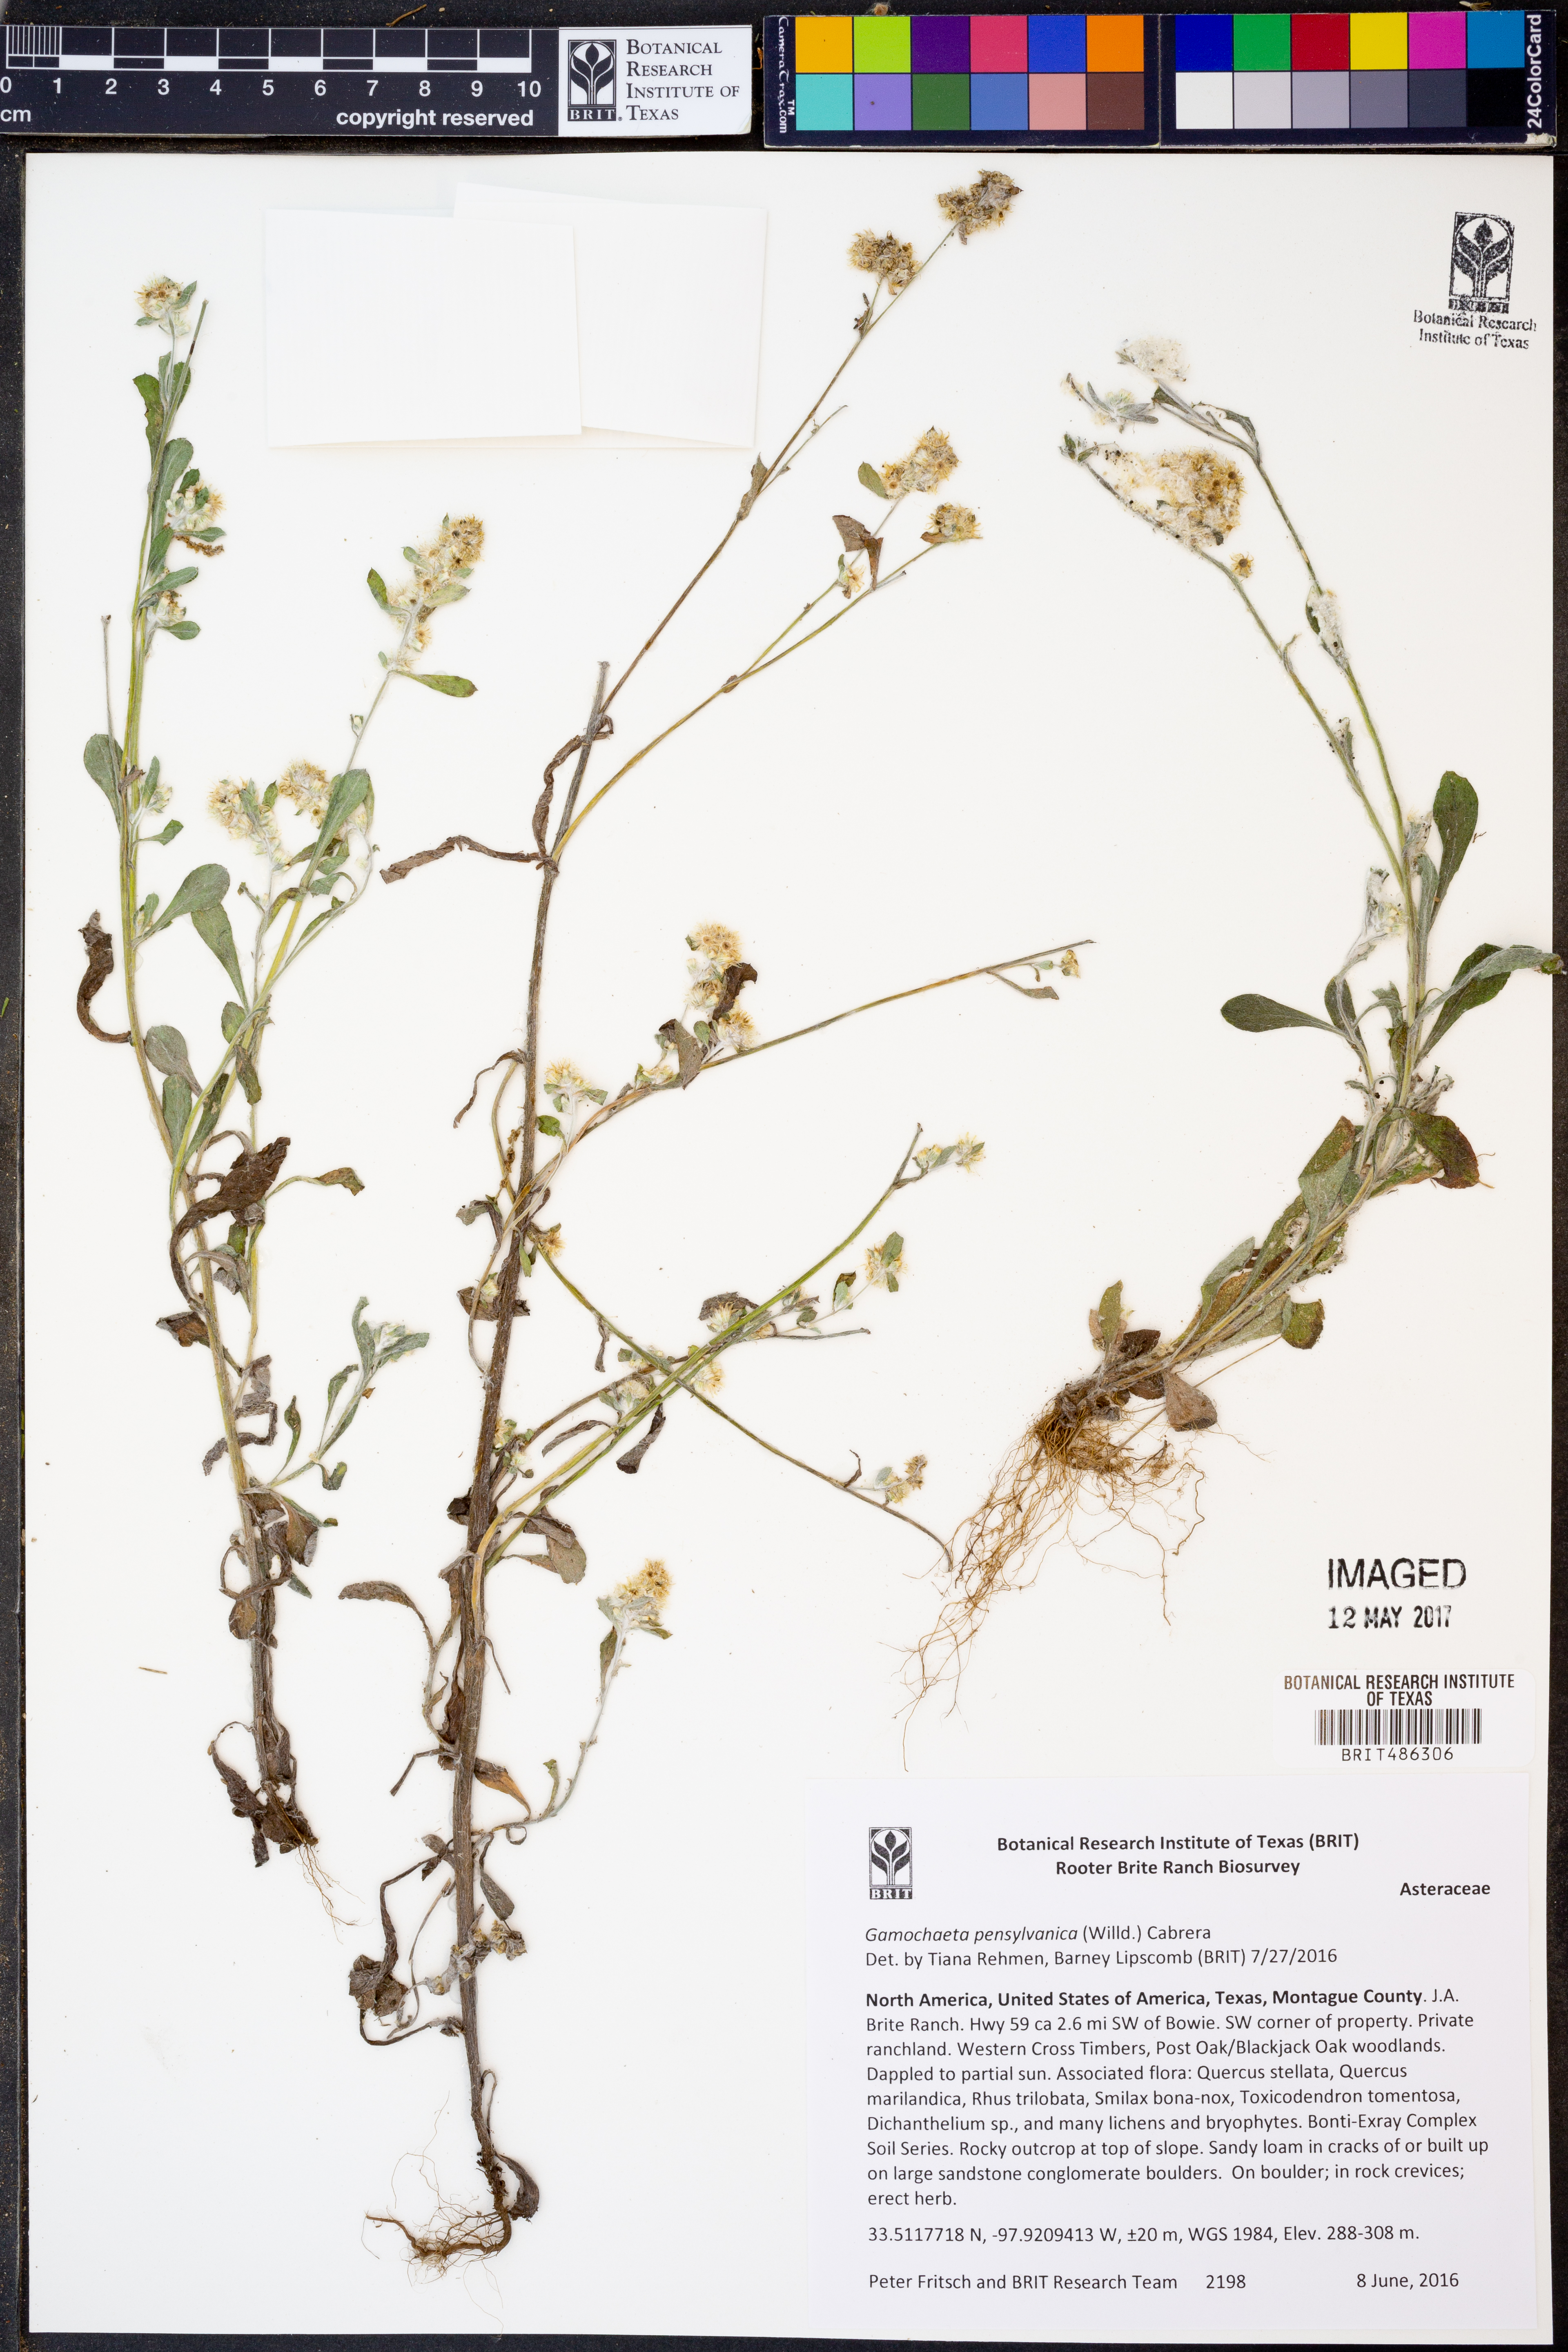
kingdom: Plantae
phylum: Tracheophyta
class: Magnoliopsida
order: Asterales
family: Asteraceae
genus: Gamochaeta
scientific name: Gamochaeta pensylvanica
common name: Pennsylvania everlasting
